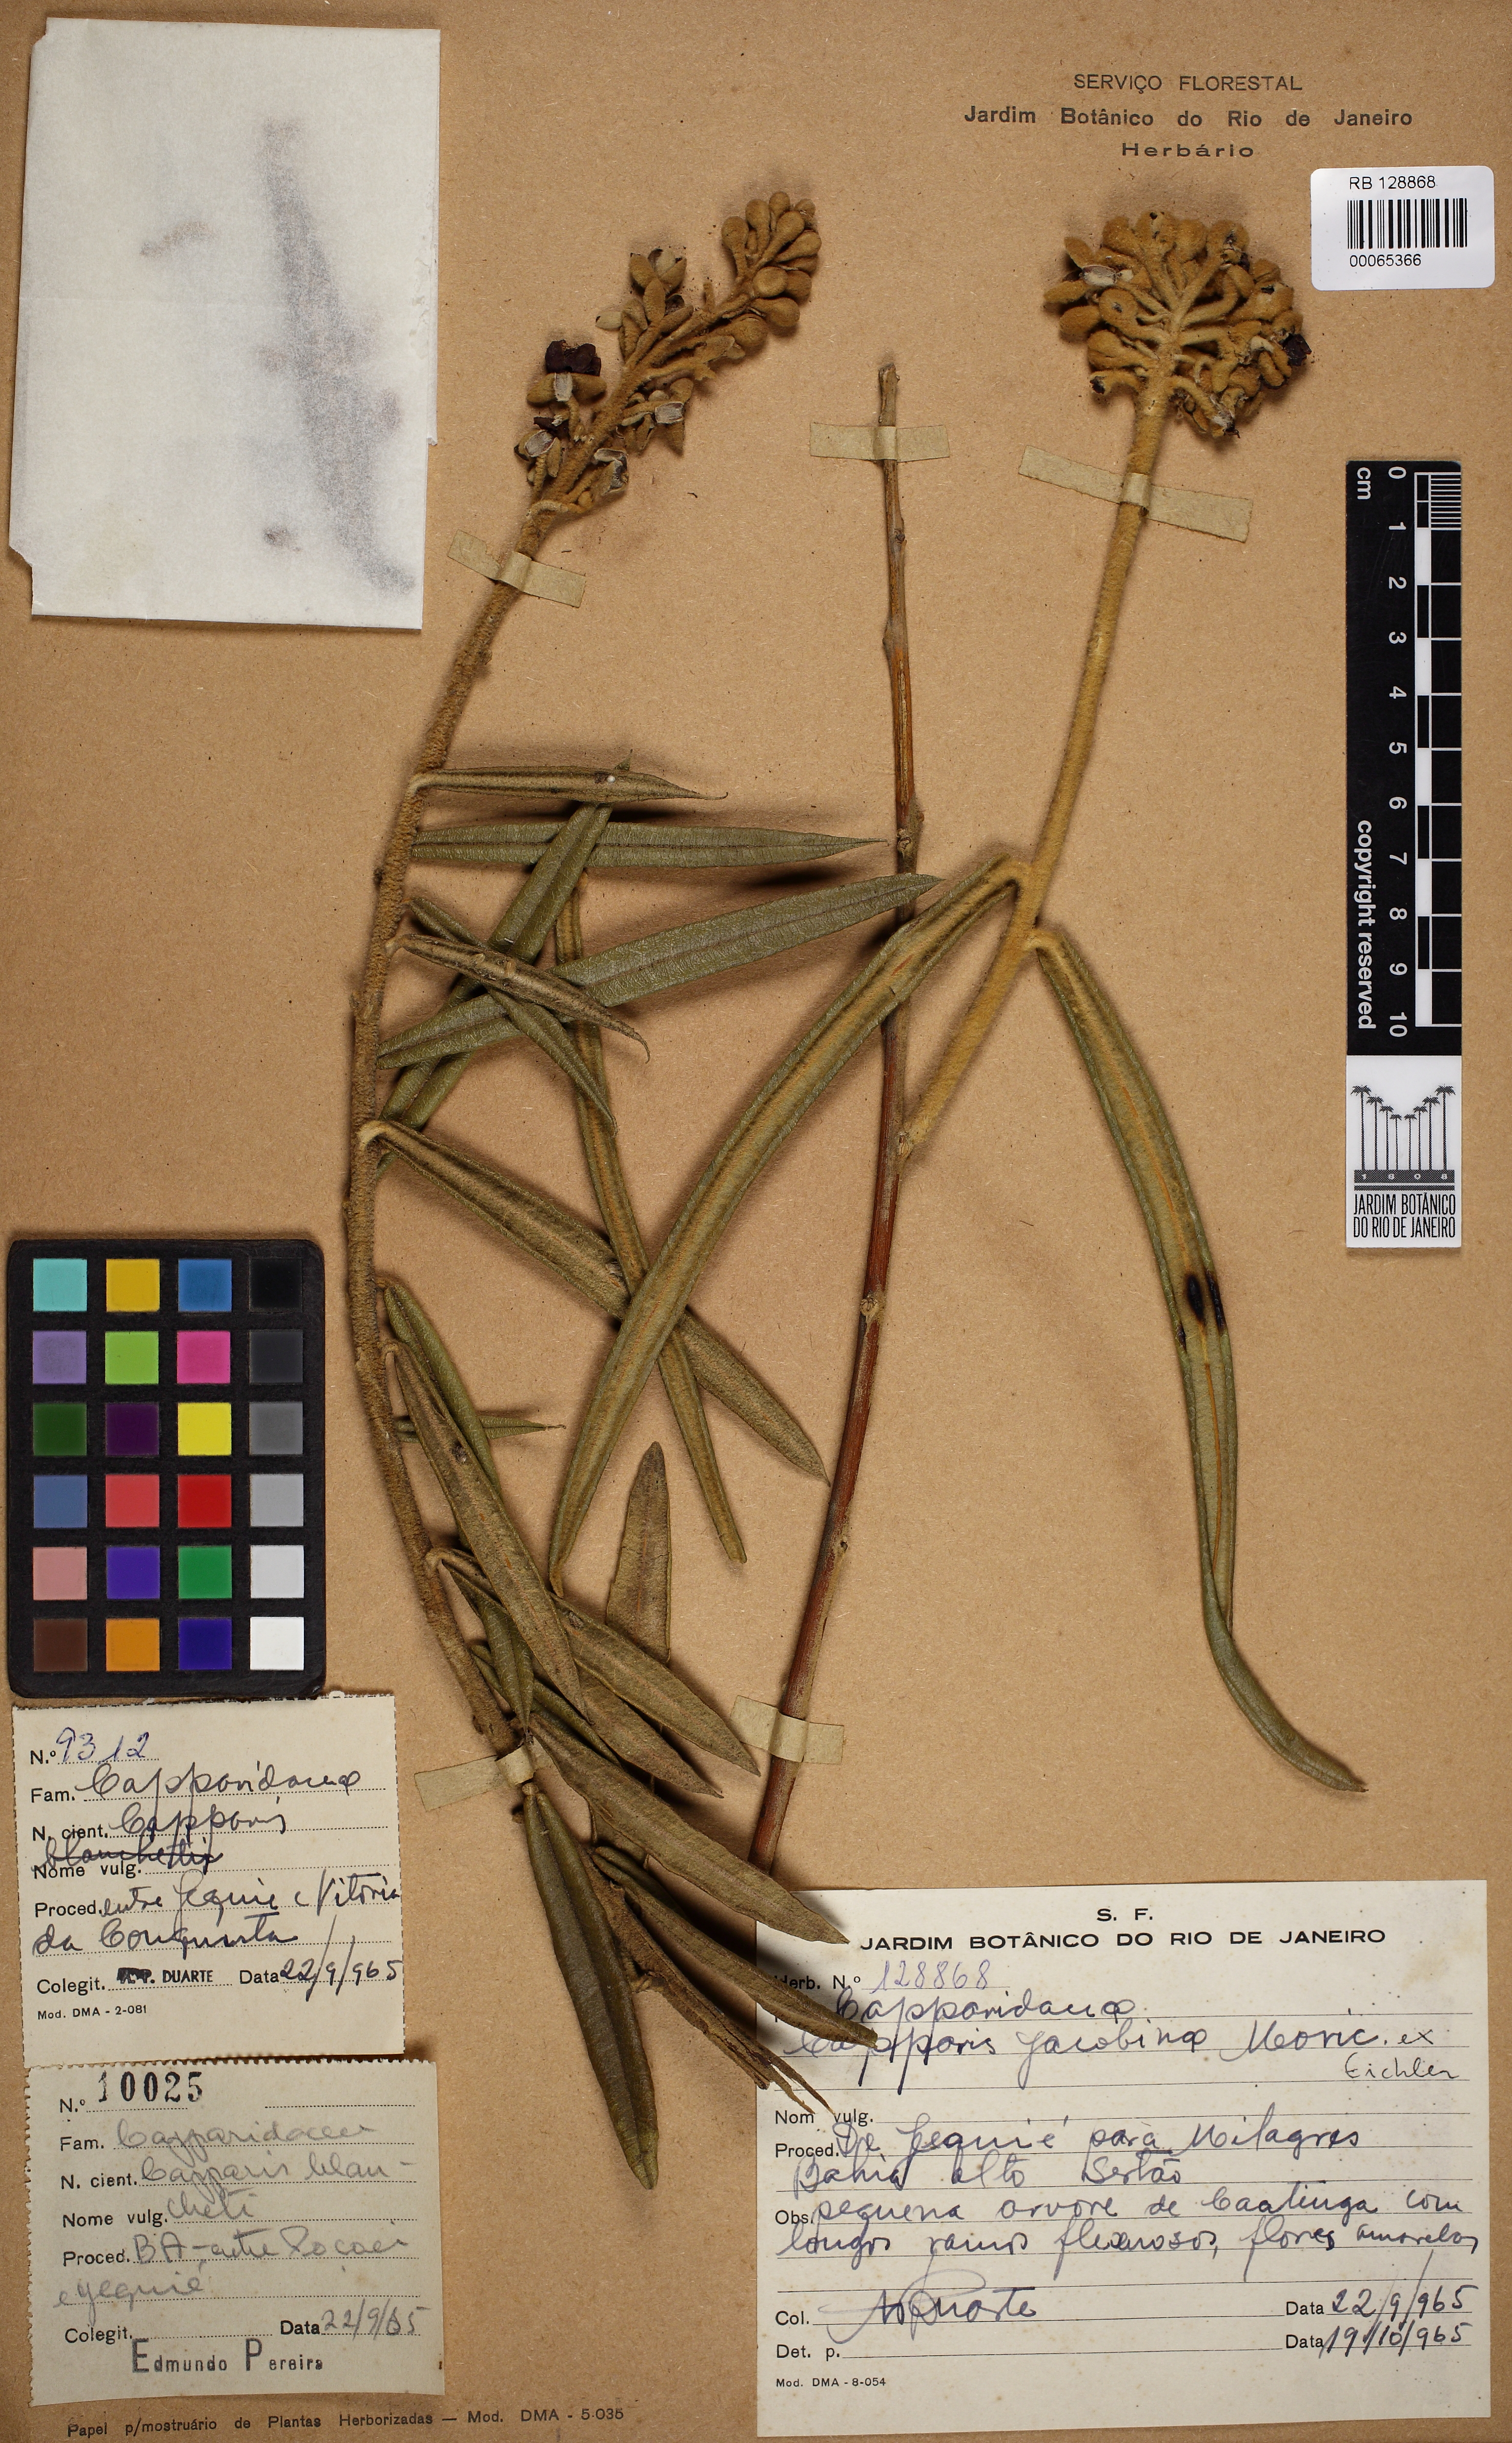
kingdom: Plantae
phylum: Tracheophyta
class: Magnoliopsida
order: Brassicales
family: Capparaceae
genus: Neocalyptrocalyx
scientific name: Neocalyptrocalyx longifolium
